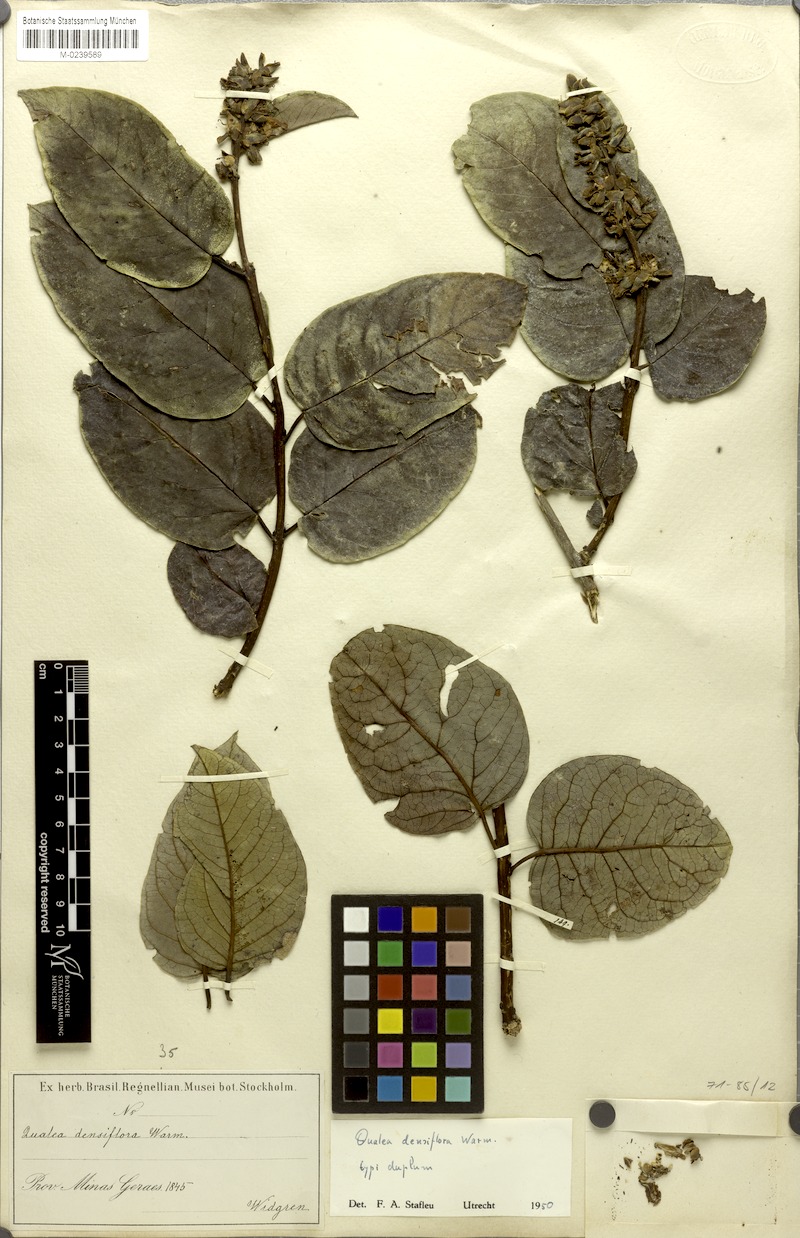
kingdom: Plantae
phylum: Tracheophyta
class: Magnoliopsida
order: Myrtales
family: Vochysiaceae
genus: Qualea
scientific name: Qualea densiflora
